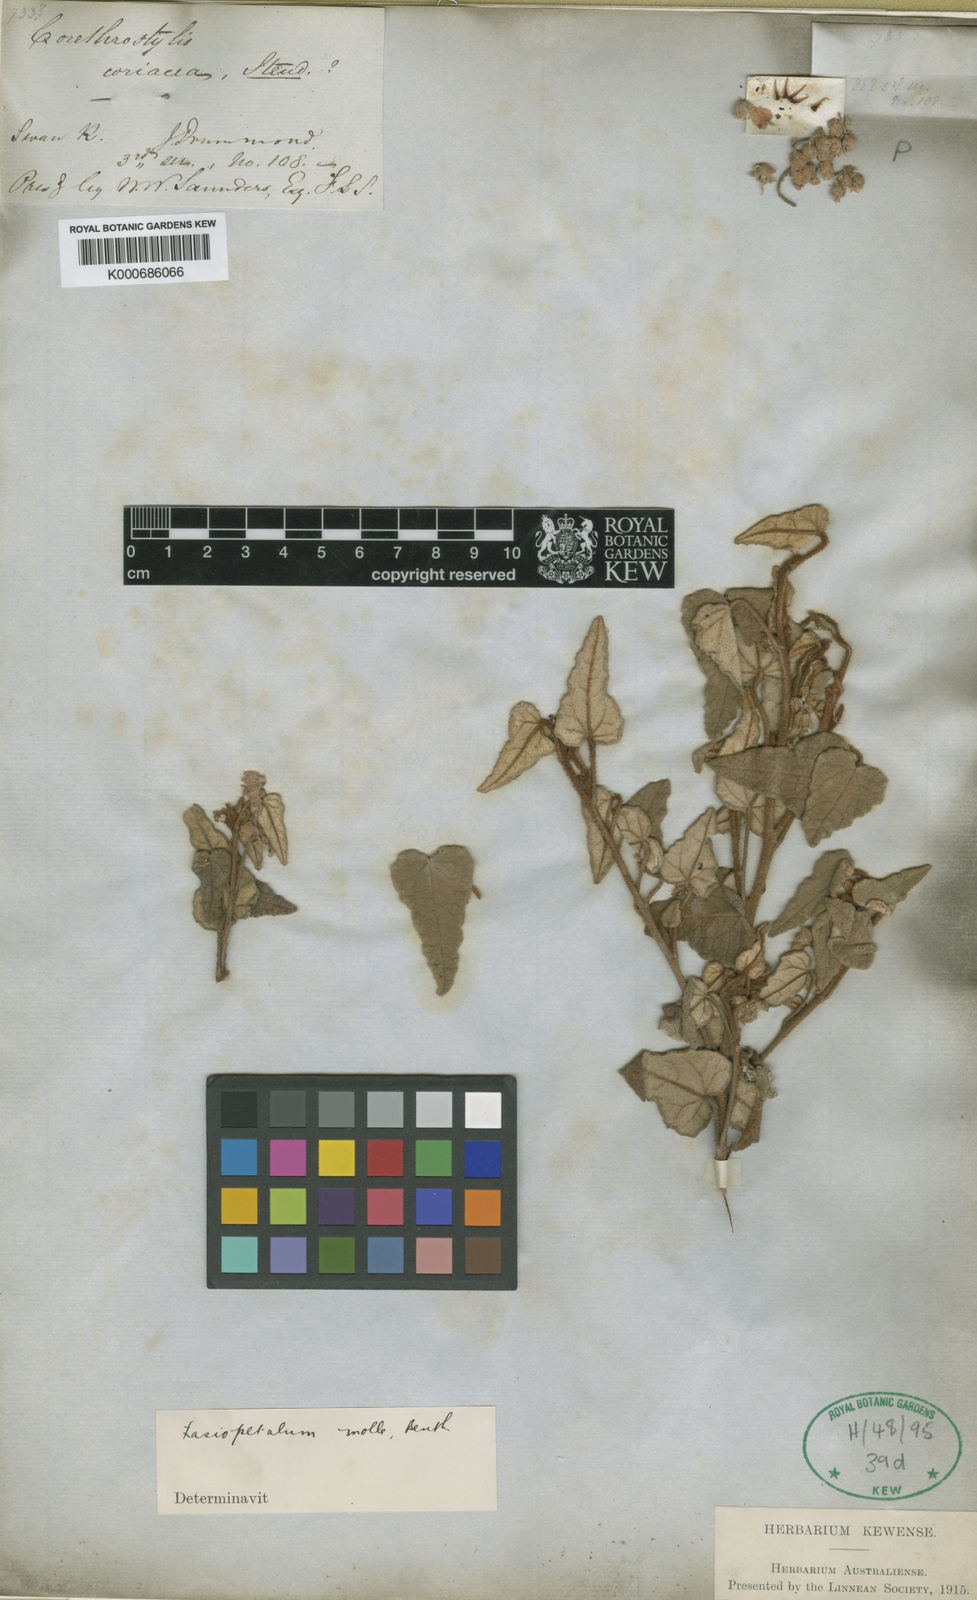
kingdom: Plantae
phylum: Tracheophyta
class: Magnoliopsida
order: Malvales
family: Malvaceae
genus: Lasiopetalum
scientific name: Lasiopetalum molle
